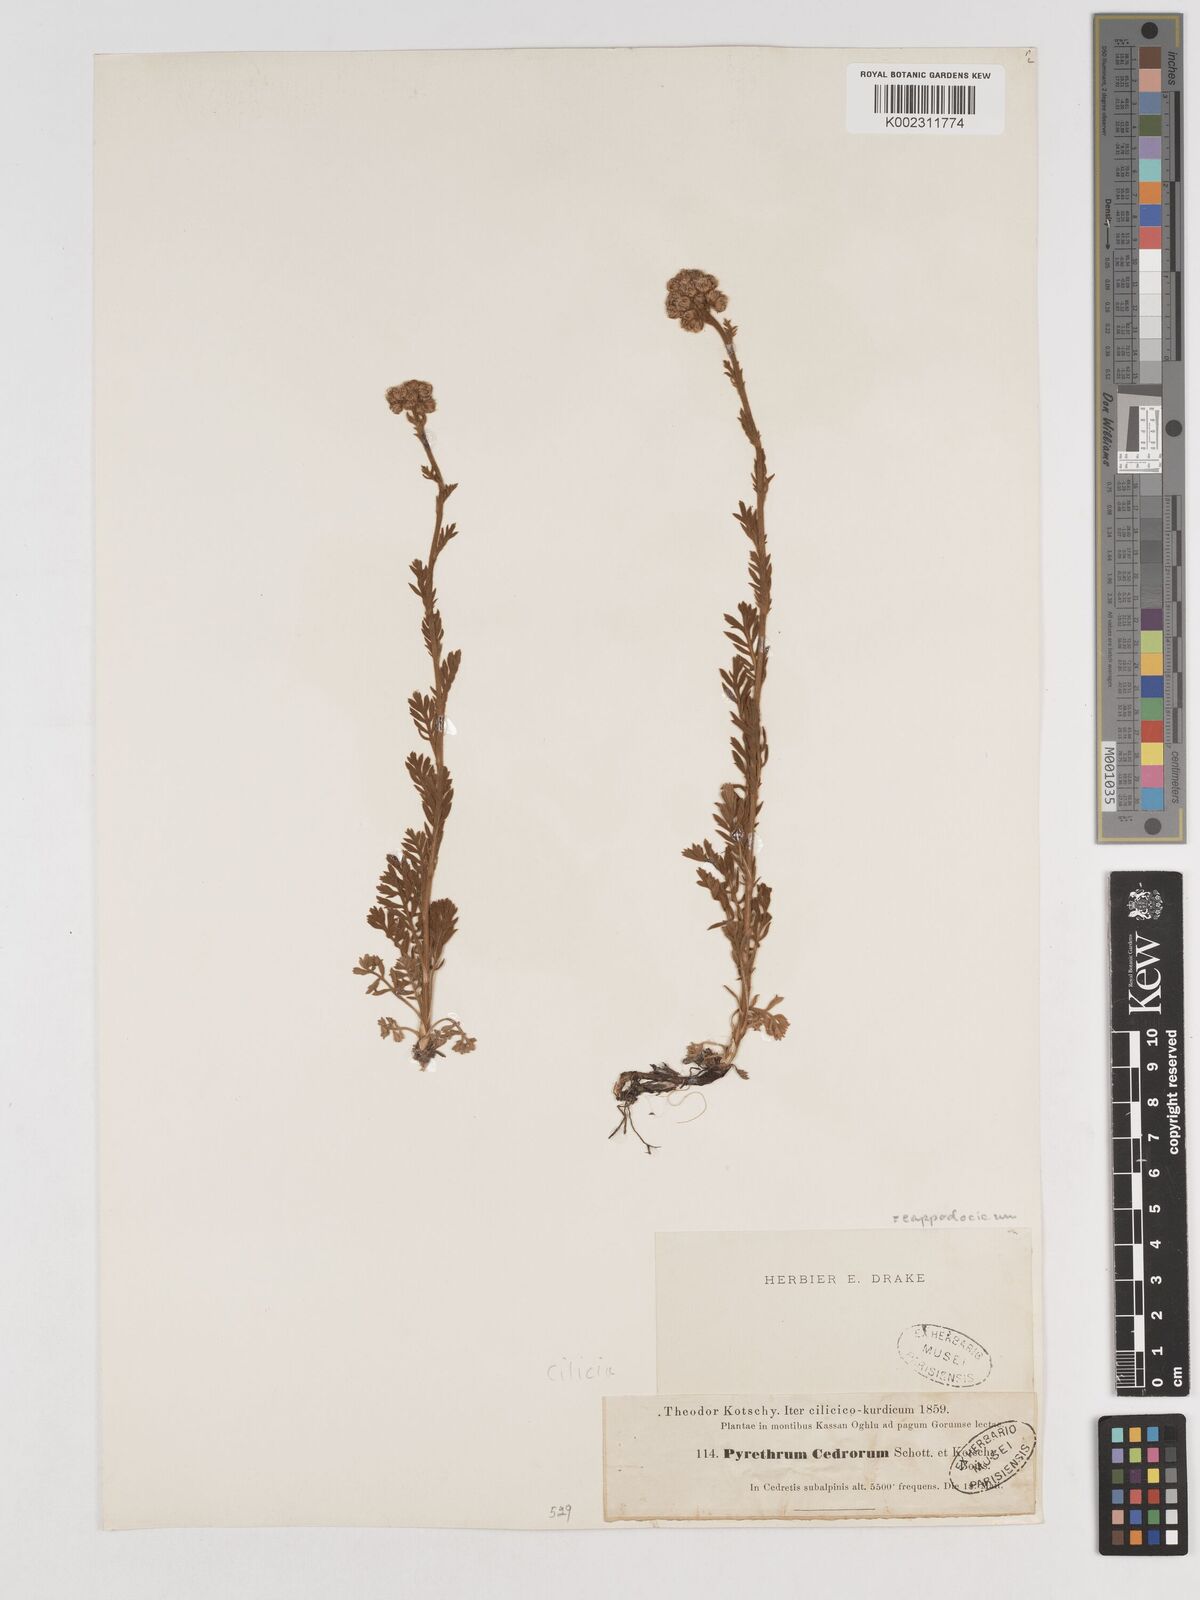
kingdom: Plantae
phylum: Tracheophyta
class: Magnoliopsida
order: Asterales
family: Asteraceae
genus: Tanacetum
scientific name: Tanacetum cappadocicum
